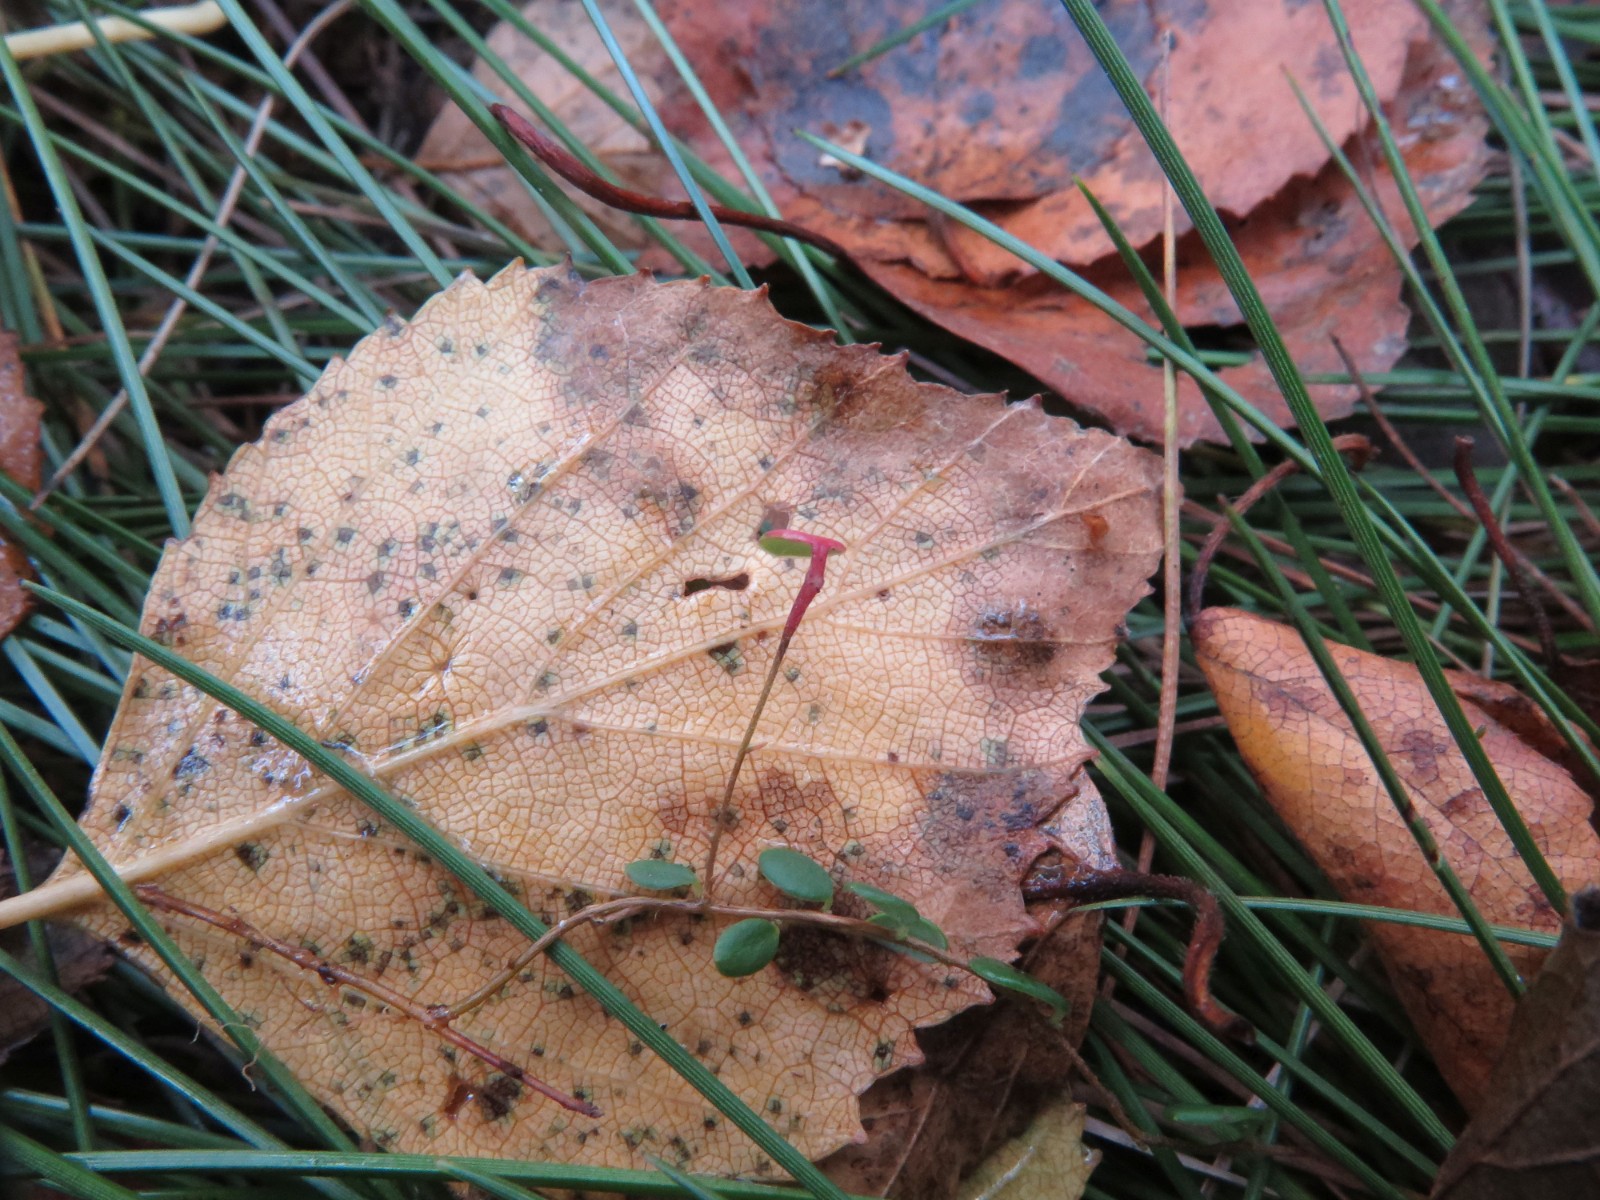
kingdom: Fungi
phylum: Ascomycota
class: Dothideomycetes
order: Capnodiales
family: Cladosporiaceae
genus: Cladosporium
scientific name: Cladosporium
